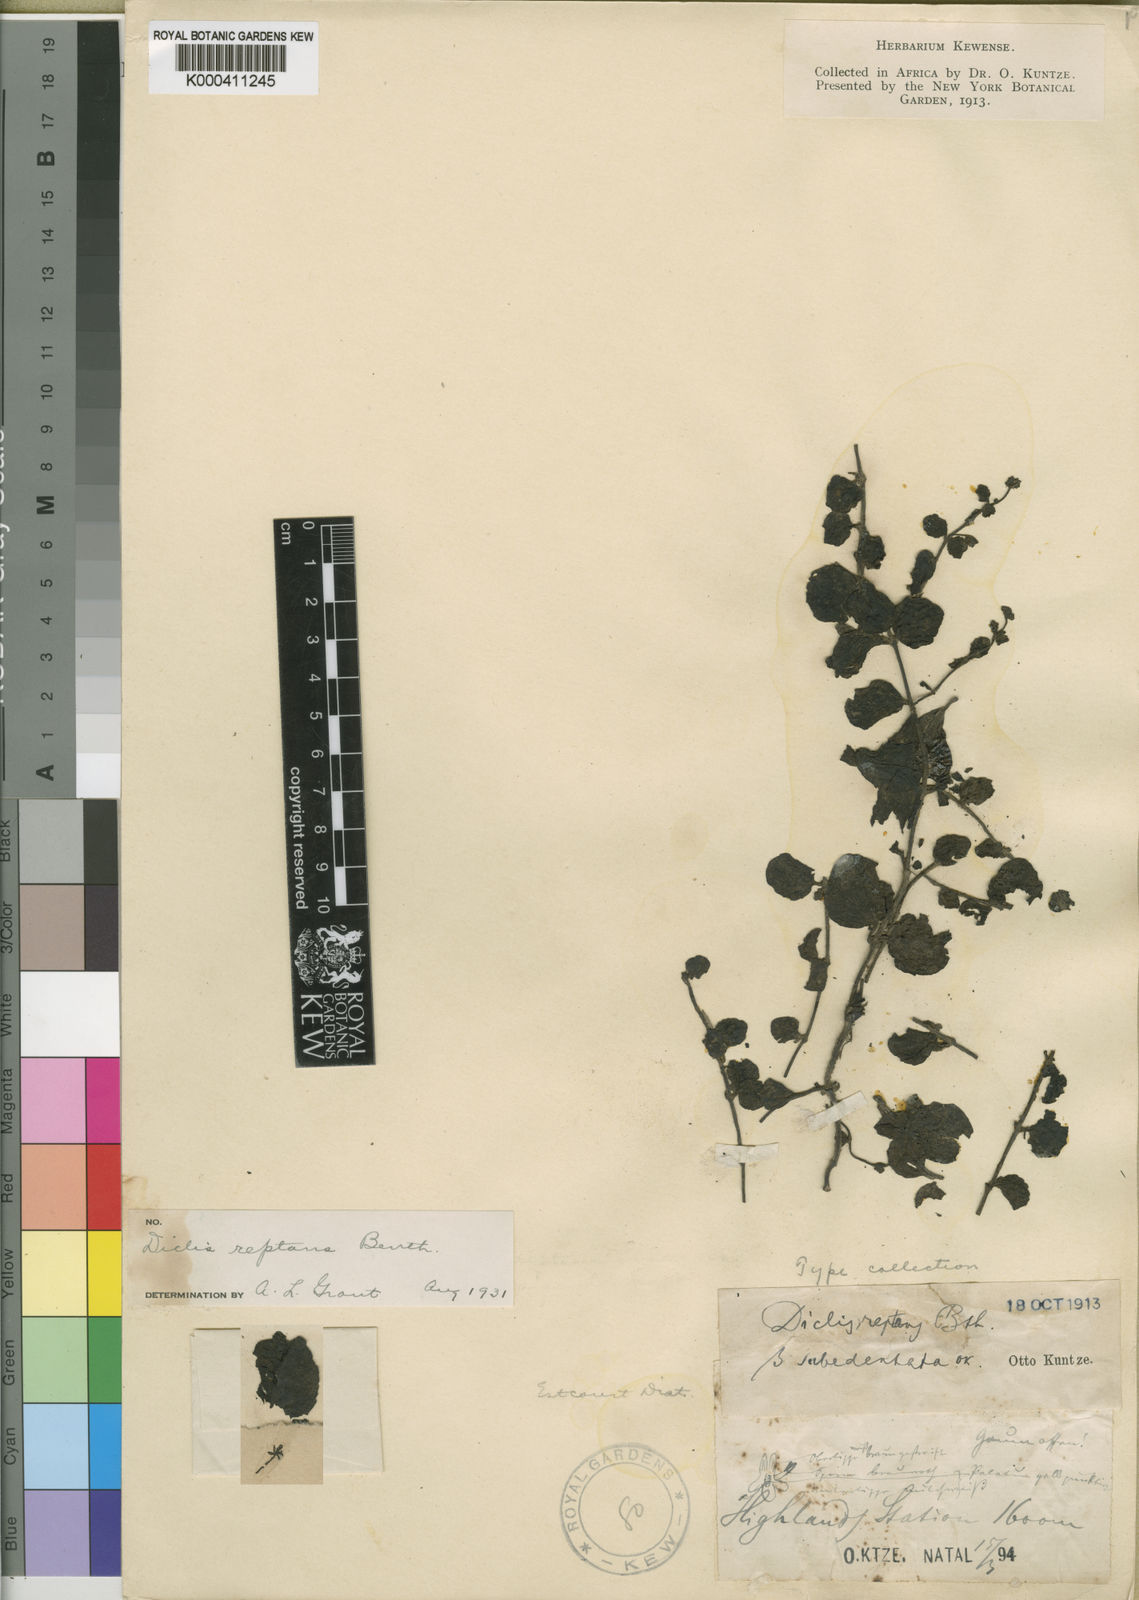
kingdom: Plantae
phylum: Tracheophyta
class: Magnoliopsida
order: Lamiales
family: Scrophulariaceae
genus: Diclis
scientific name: Diclis reptans
